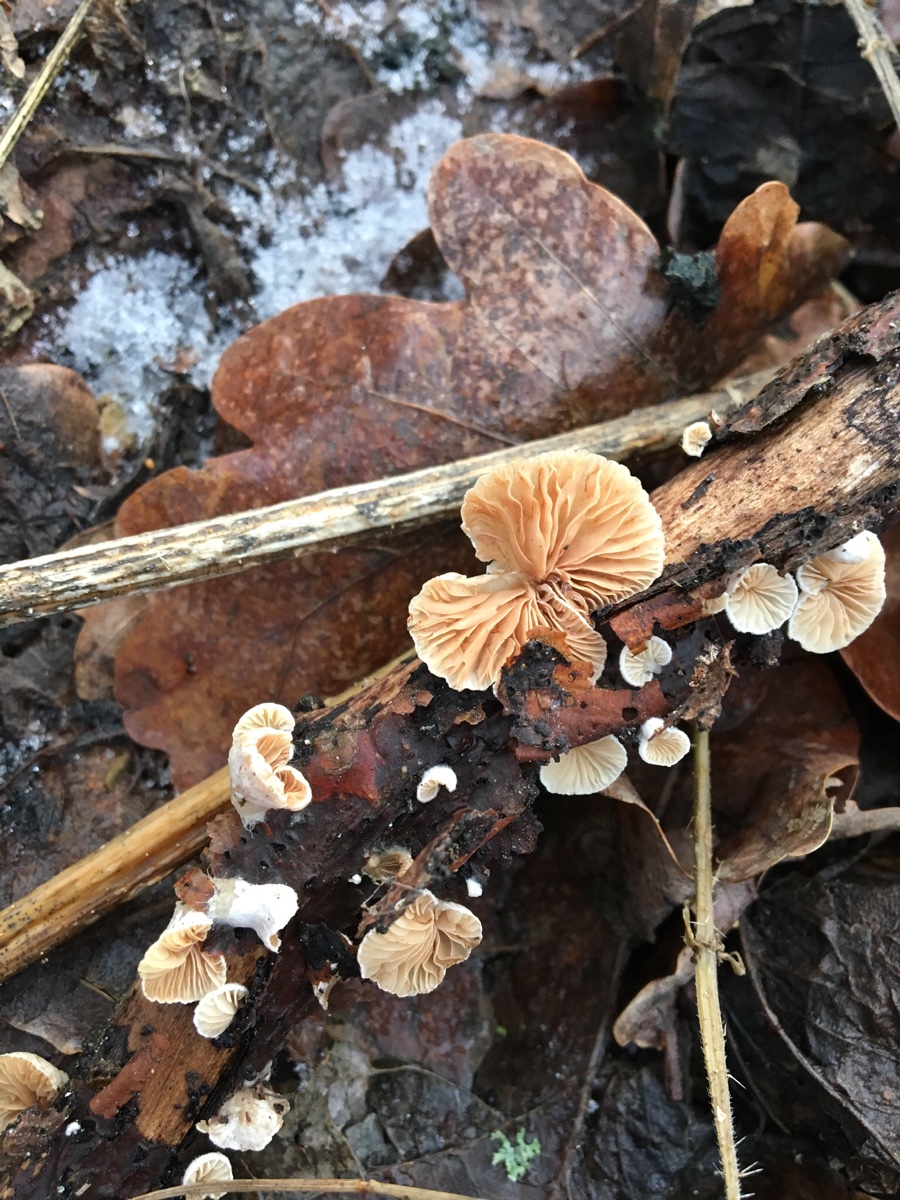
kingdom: Fungi
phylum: Basidiomycota
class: Agaricomycetes
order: Agaricales
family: Crepidotaceae
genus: Crepidotus
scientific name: Crepidotus cesatii
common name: almindelig muslingesvamp
